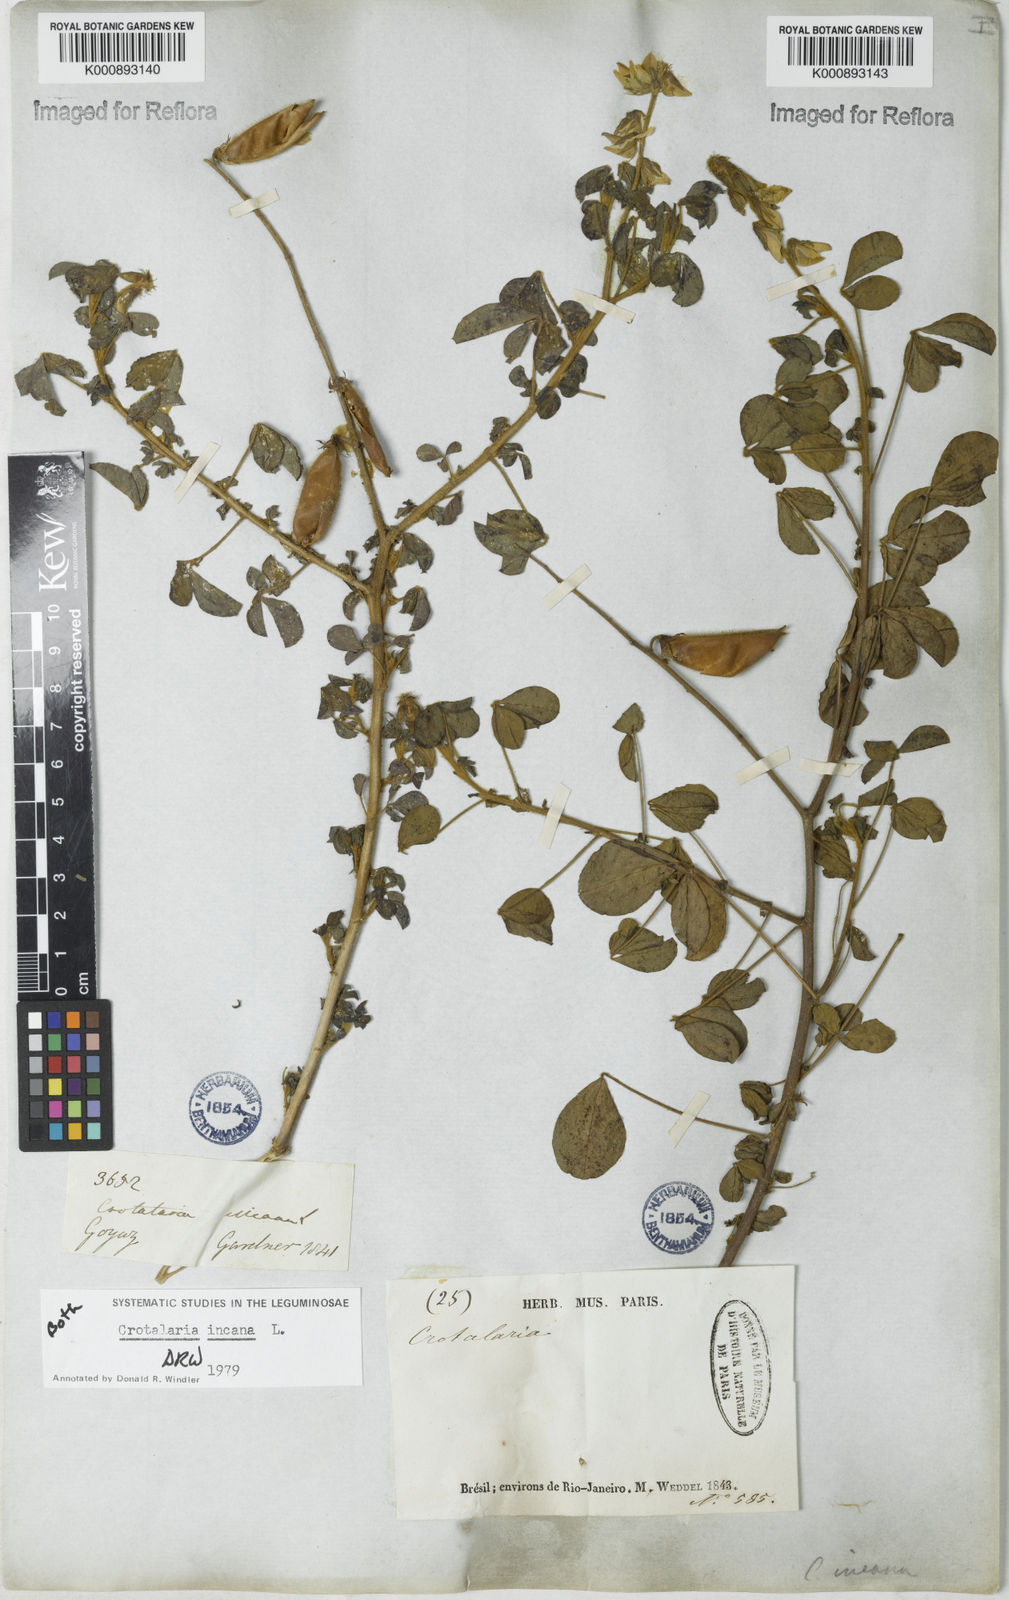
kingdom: Plantae
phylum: Tracheophyta
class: Magnoliopsida
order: Fabales
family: Fabaceae
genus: Crotalaria
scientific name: Crotalaria
